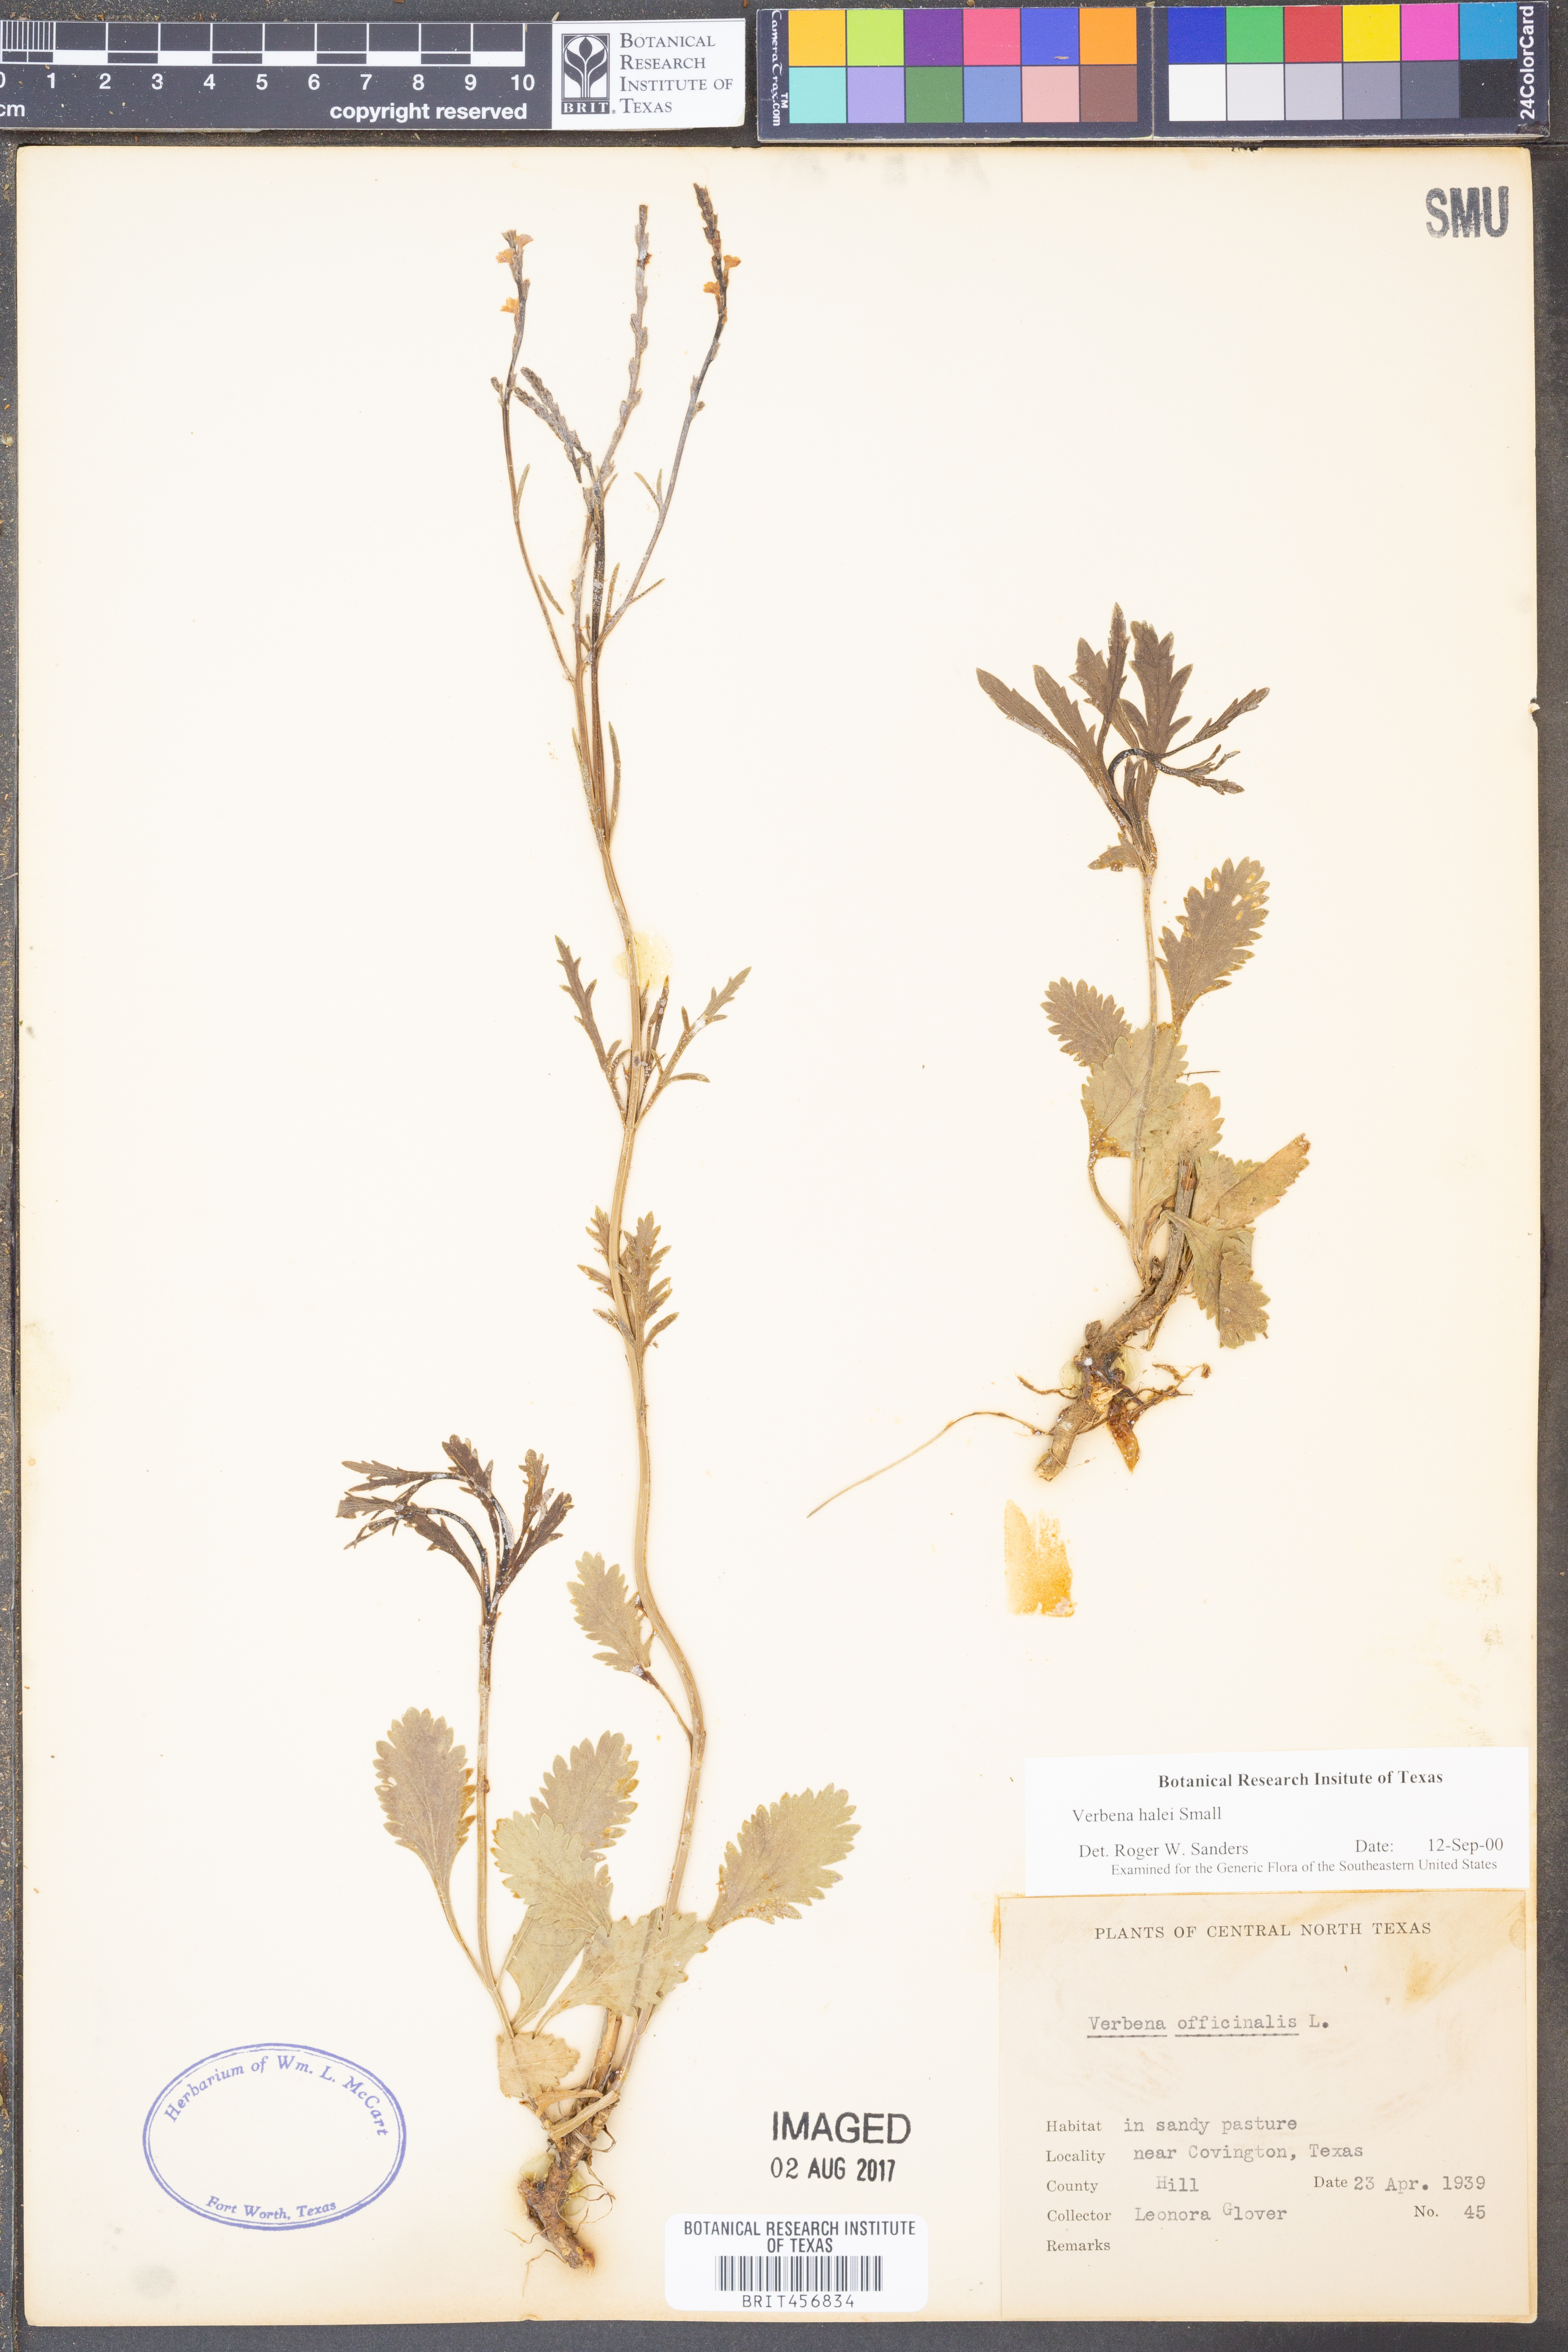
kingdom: Plantae
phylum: Tracheophyta
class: Magnoliopsida
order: Lamiales
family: Verbenaceae
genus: Verbena
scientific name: Verbena halei
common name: Texas vervain
